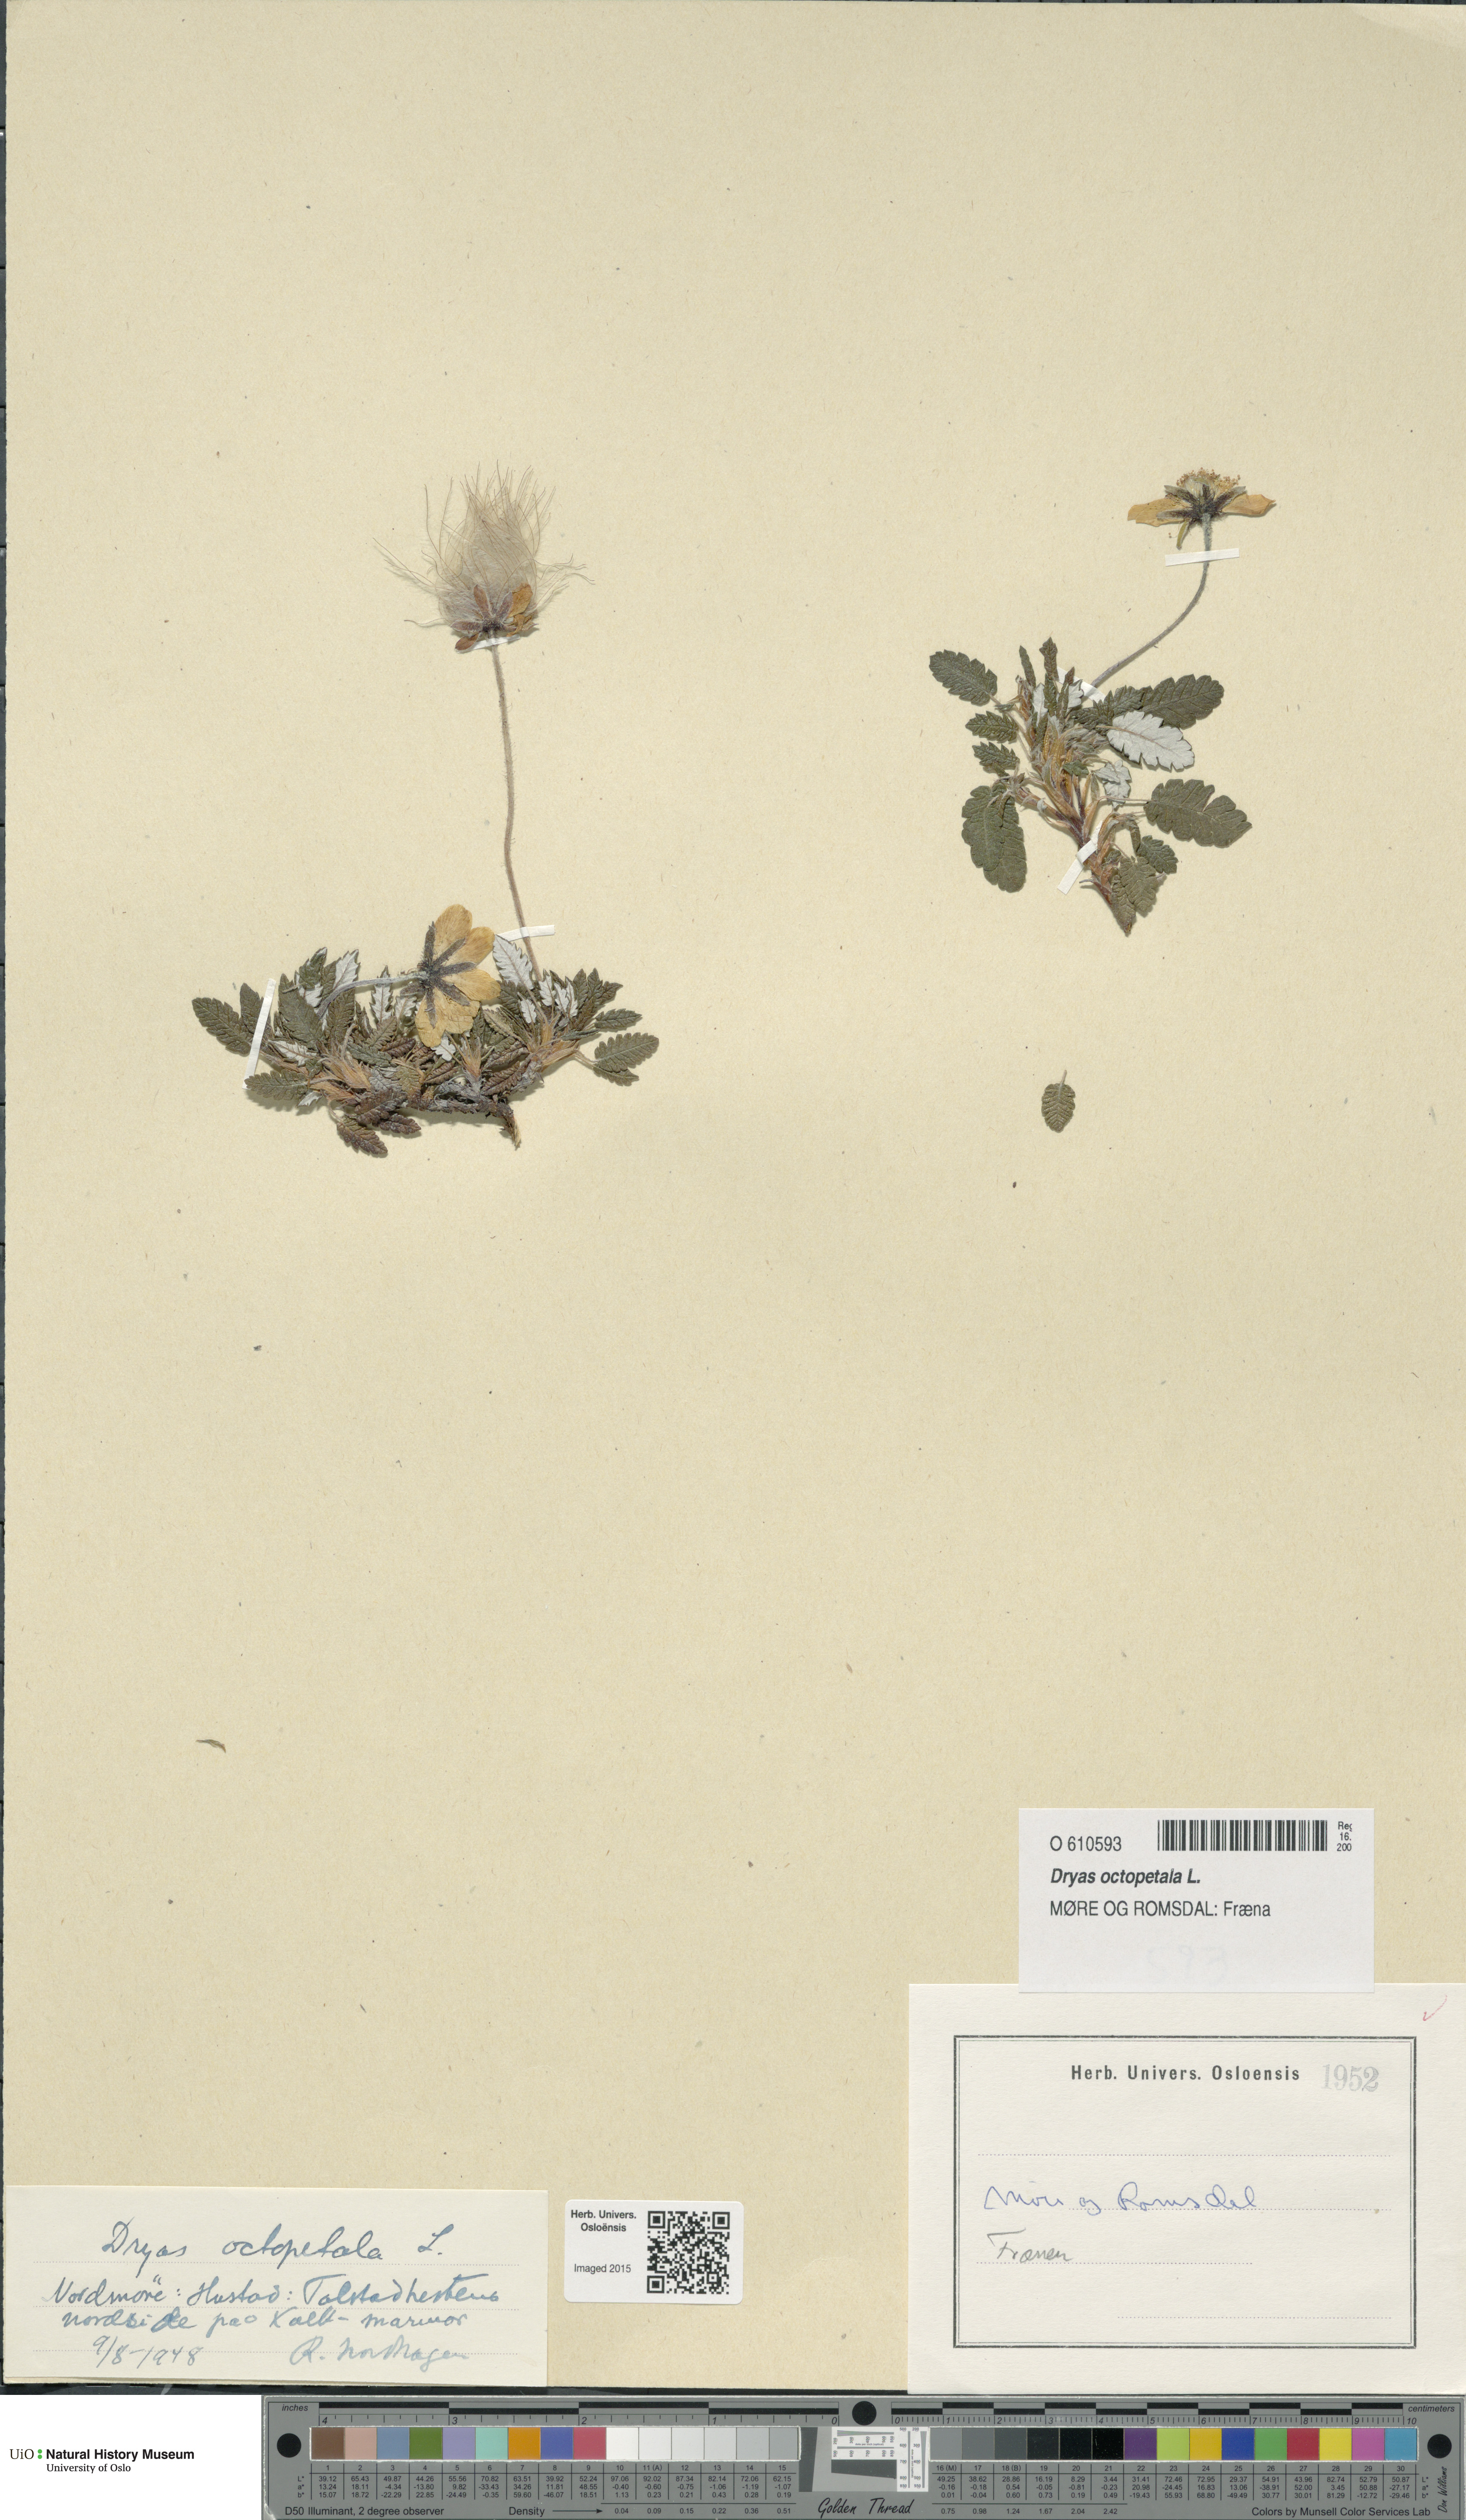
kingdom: Plantae
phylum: Tracheophyta
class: Magnoliopsida
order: Rosales
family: Rosaceae
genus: Dryas
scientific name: Dryas octopetala
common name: Eight-petal mountain-avens
